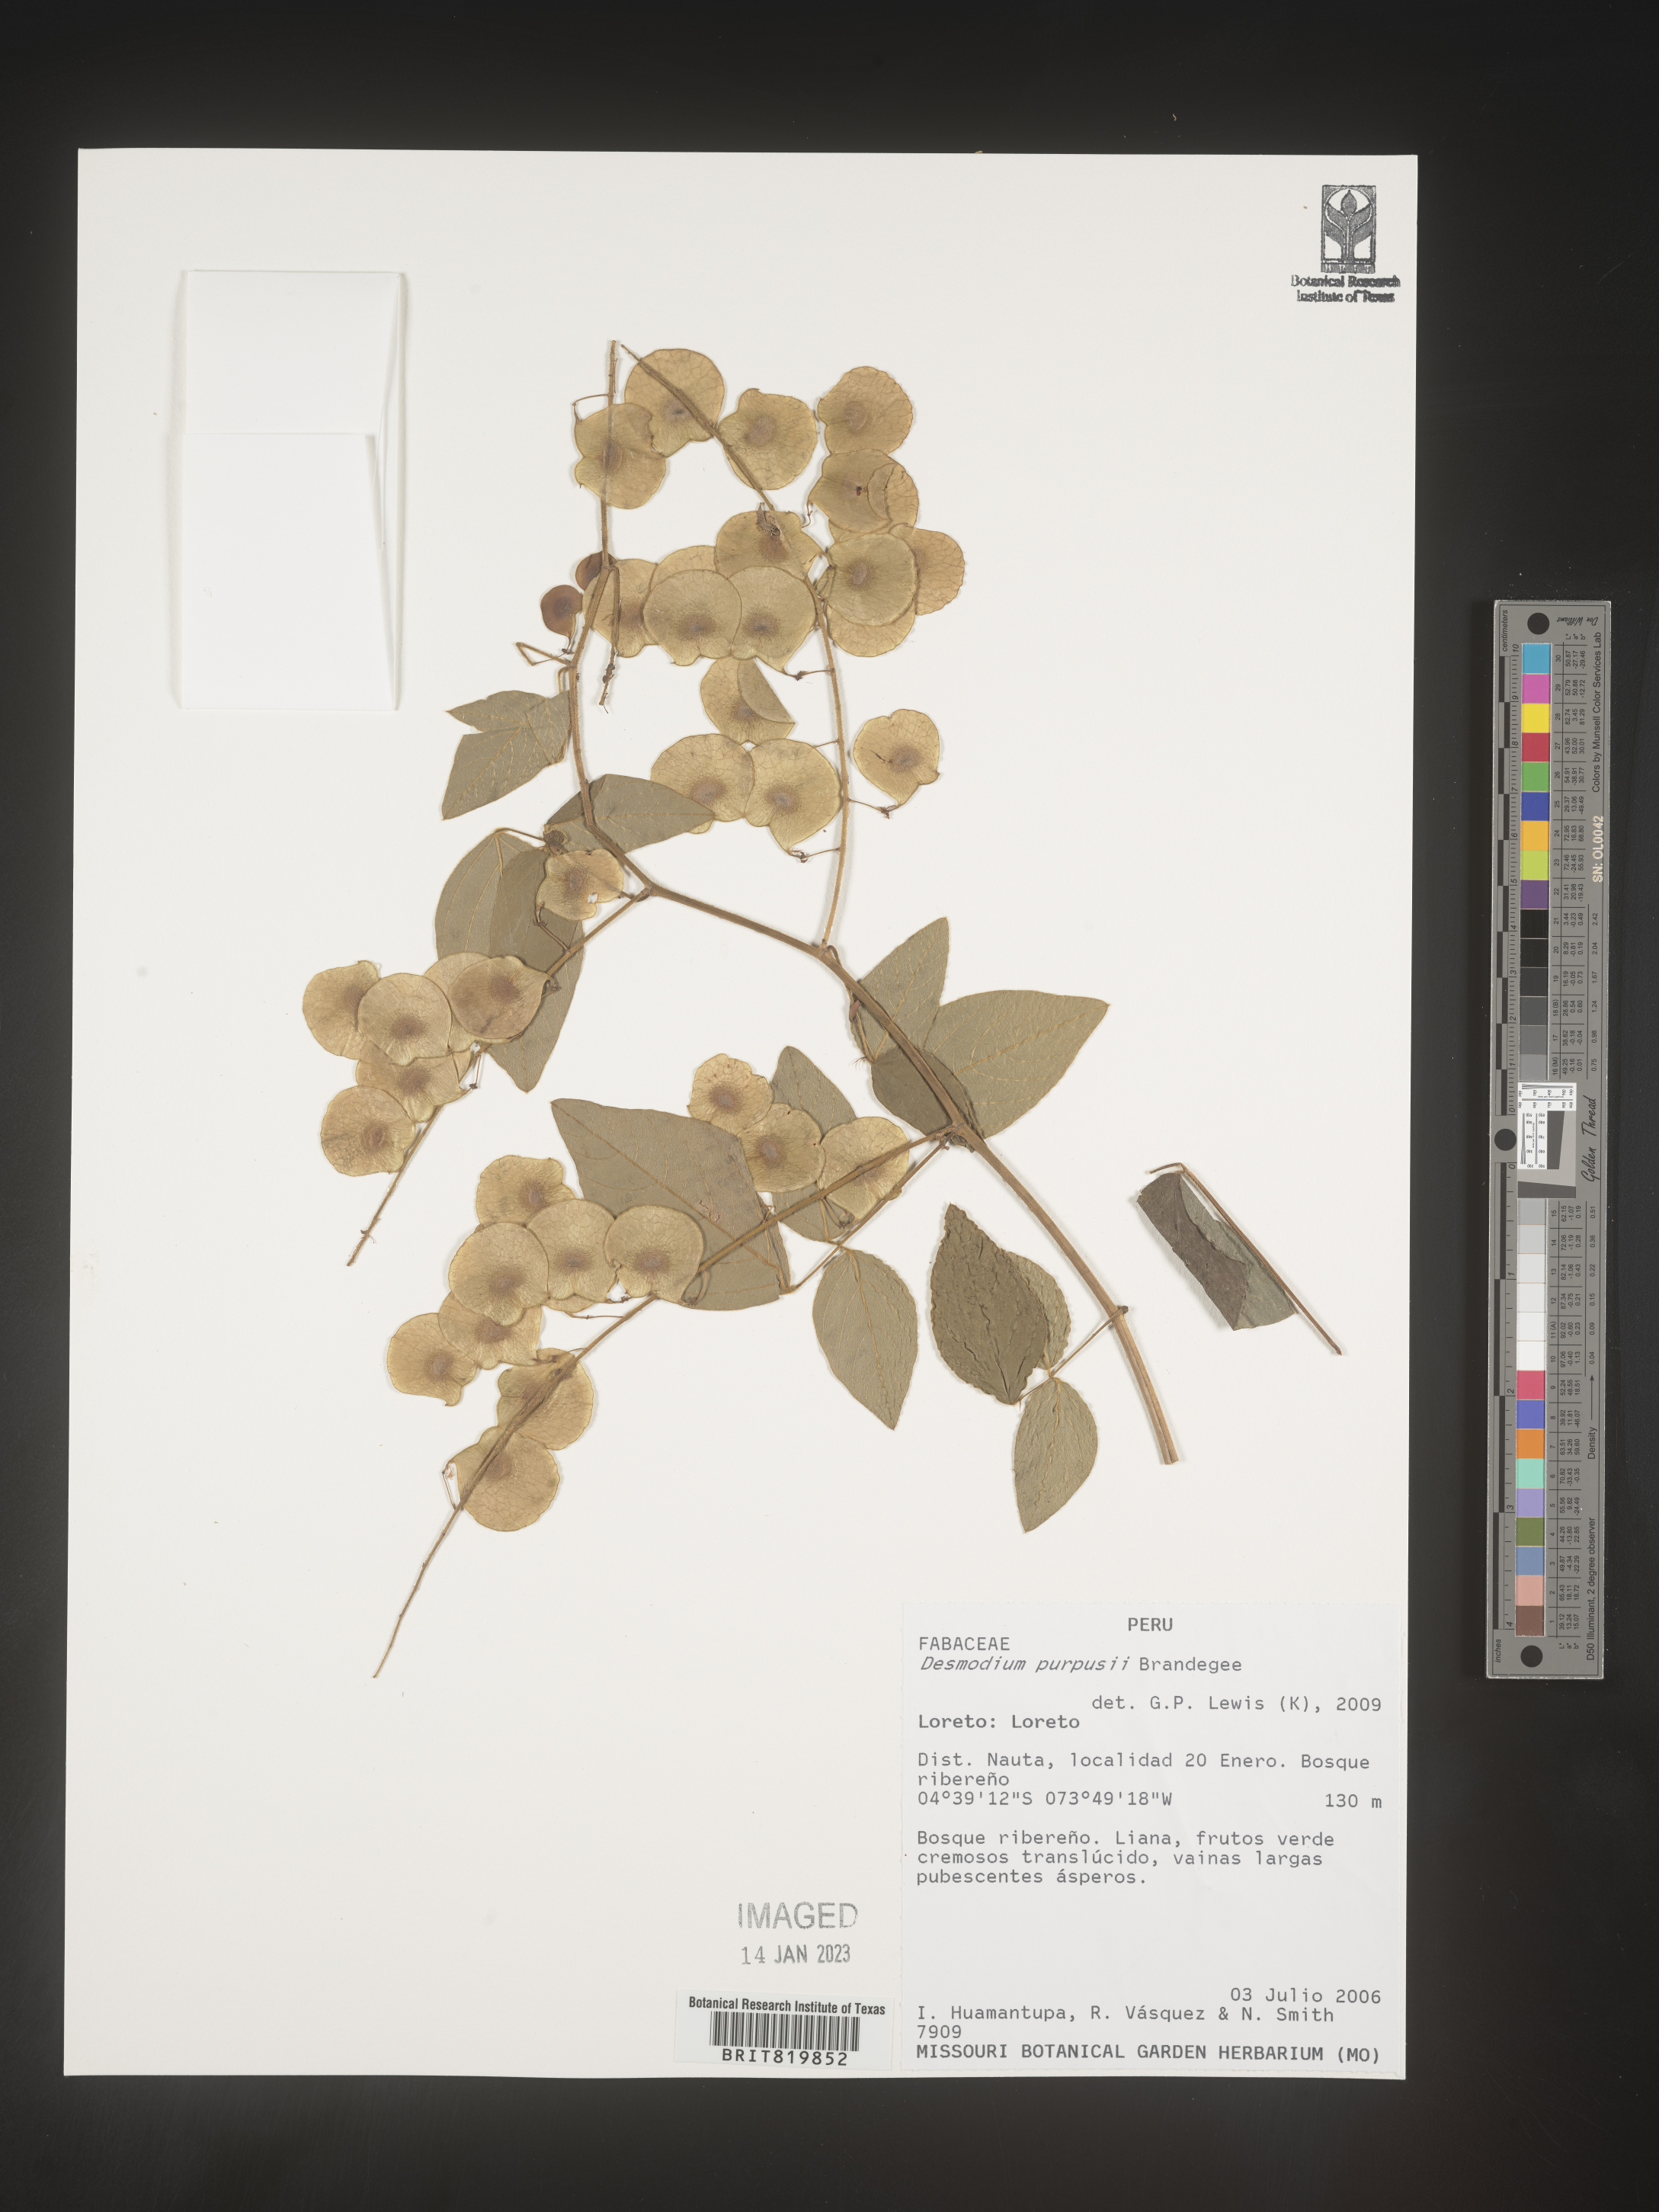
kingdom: Plantae
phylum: Tracheophyta
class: Magnoliopsida
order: Fabales
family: Fabaceae
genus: Desmodium
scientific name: Desmodium
